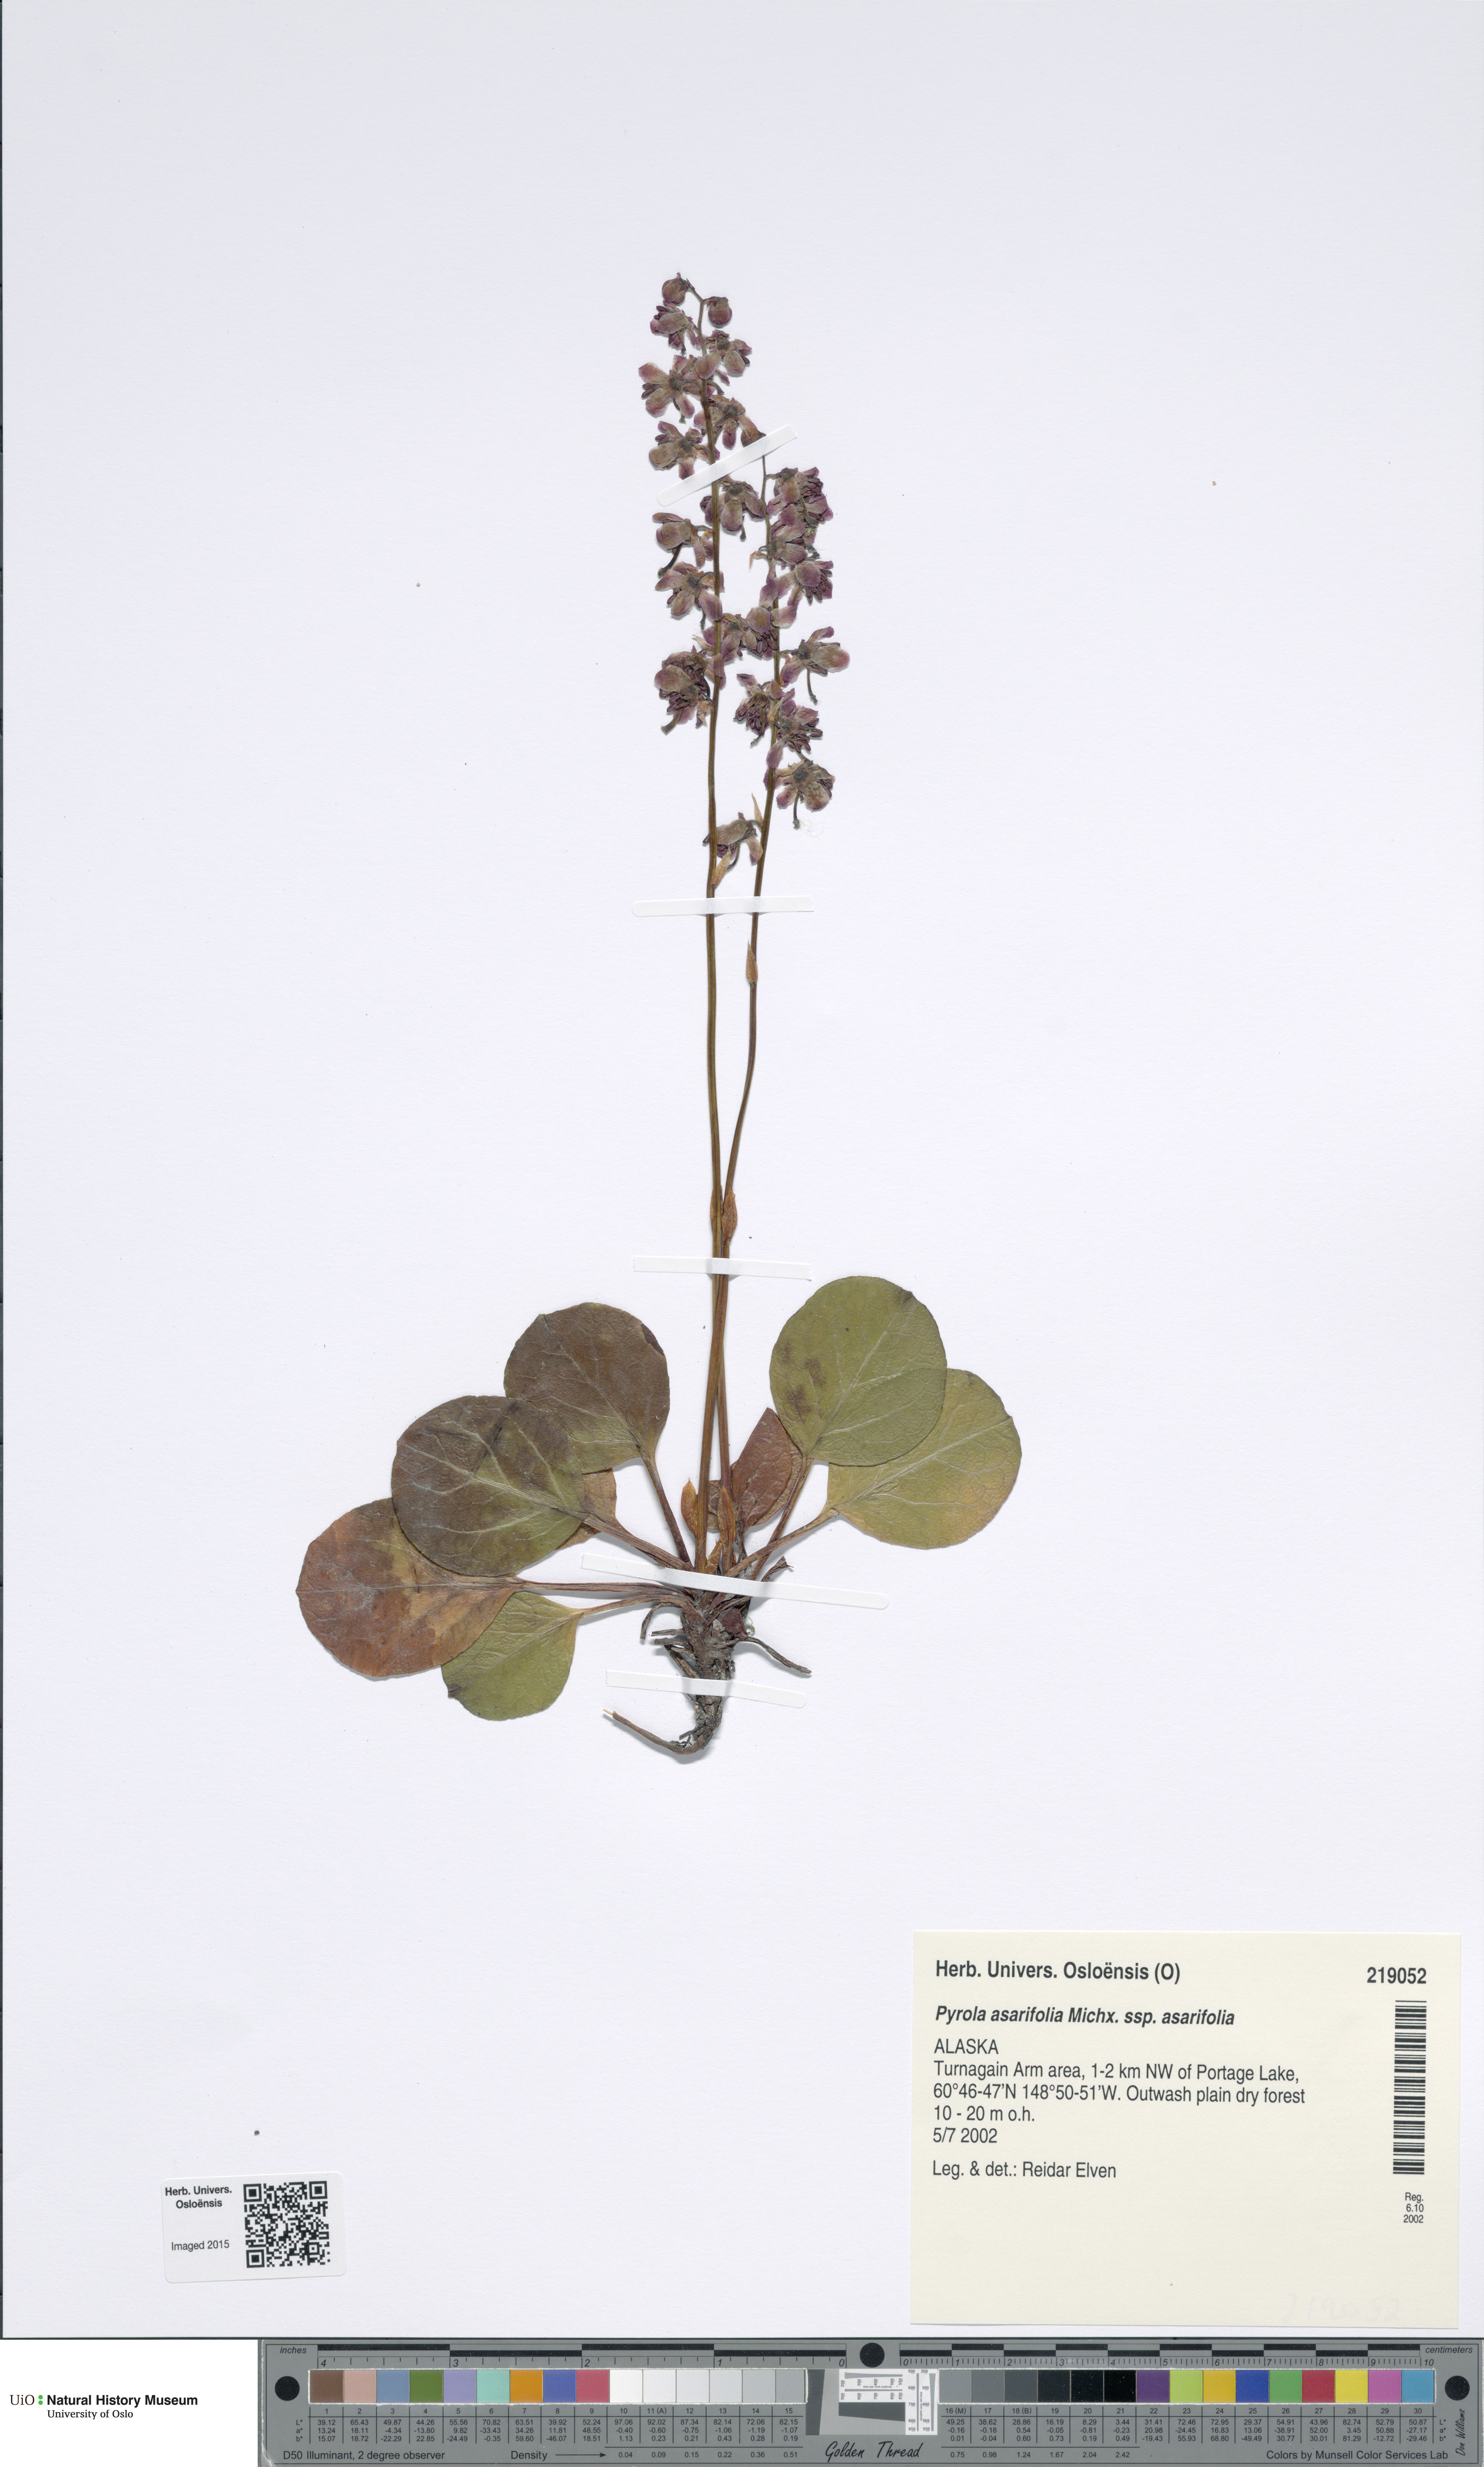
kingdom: Plantae
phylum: Tracheophyta
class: Magnoliopsida
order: Ericales
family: Ericaceae
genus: Pyrola
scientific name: Pyrola asarifolia
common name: Bog wintergreen
